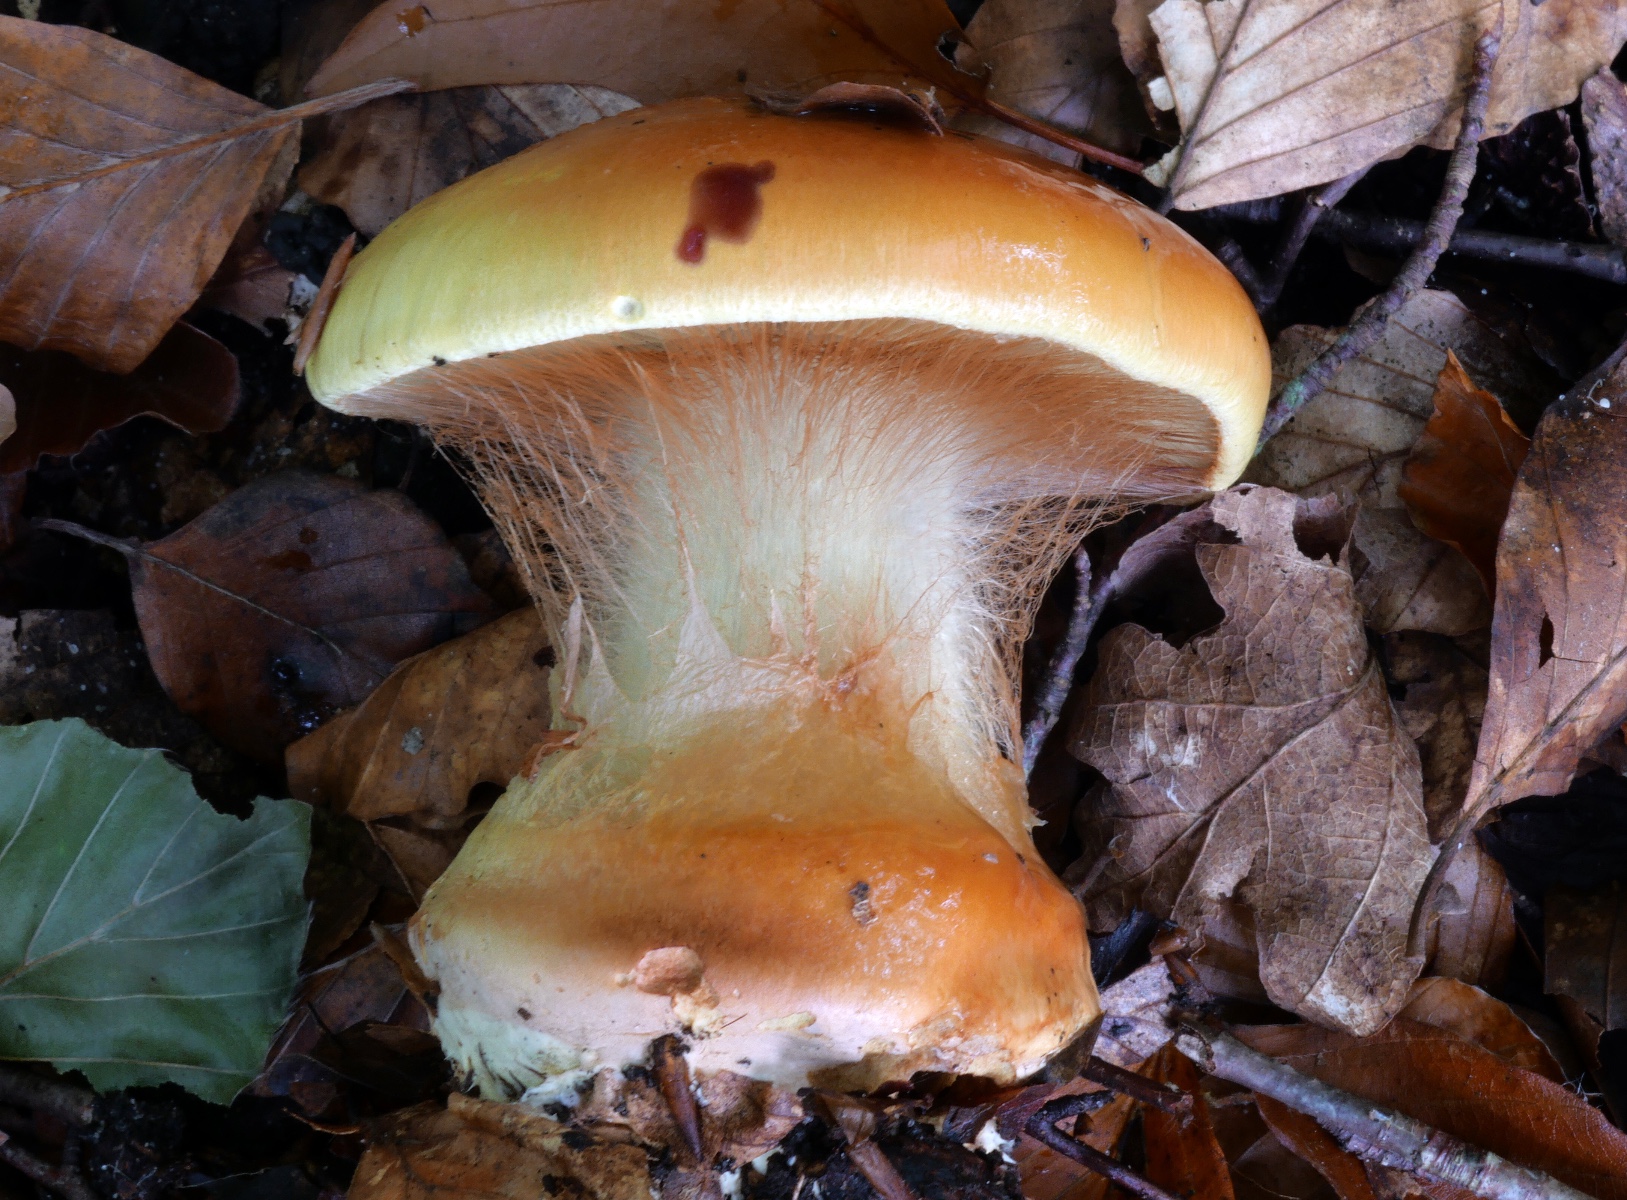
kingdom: Fungi
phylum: Basidiomycota
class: Agaricomycetes
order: Agaricales
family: Cortinariaceae
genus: Calonarius
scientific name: Calonarius elegantissimus
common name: orangegylden slørhat
